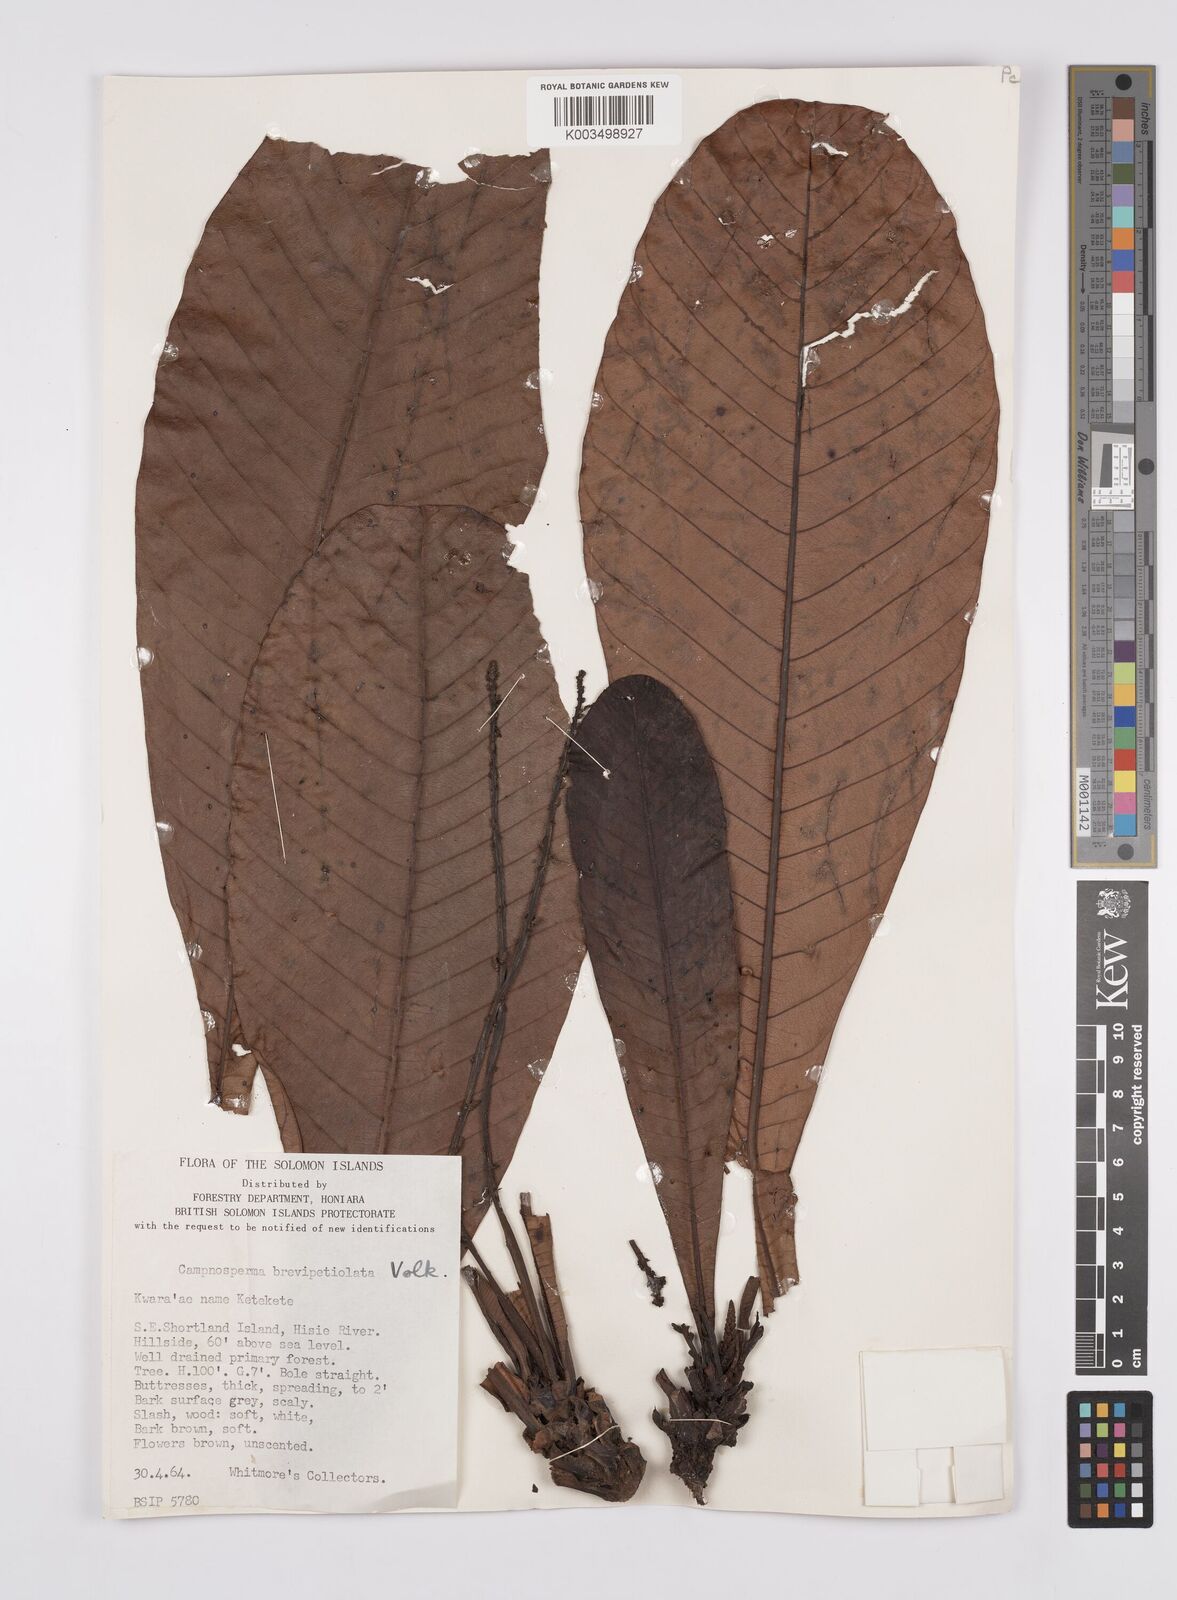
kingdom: Plantae
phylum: Tracheophyta
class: Magnoliopsida
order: Sapindales
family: Anacardiaceae
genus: Campnosperma
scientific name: Campnosperma brevipetiolatum
